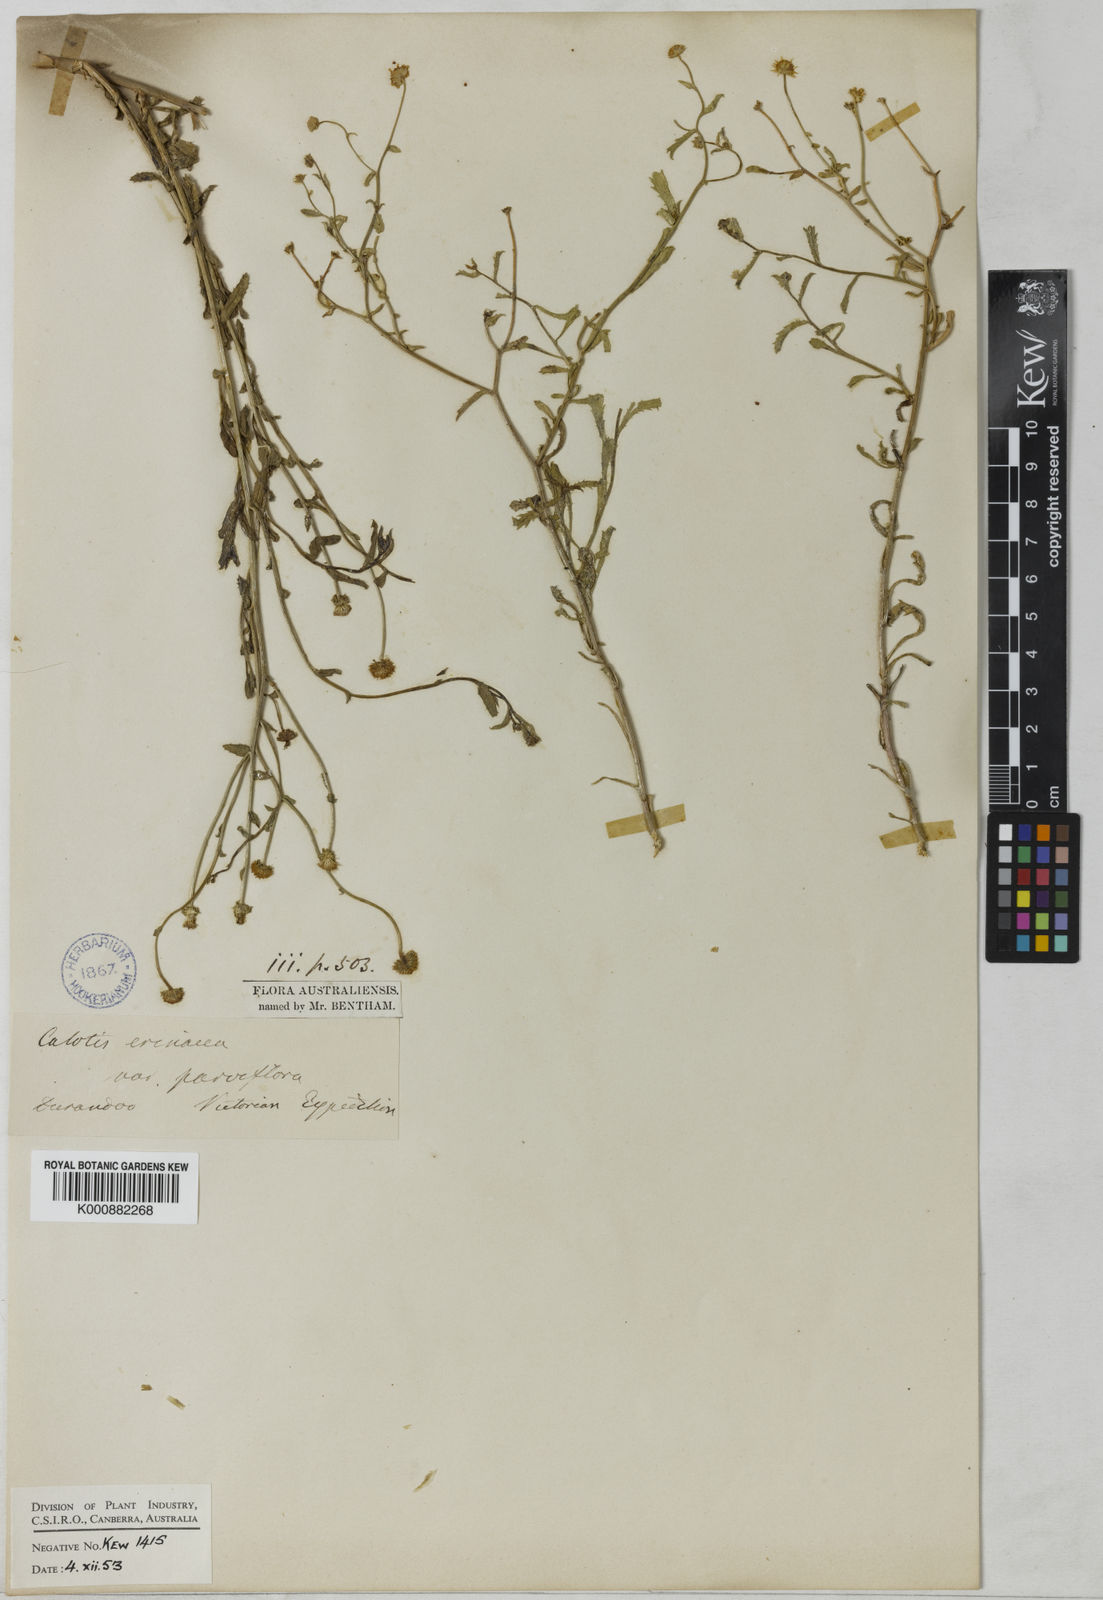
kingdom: Plantae
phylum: Tracheophyta
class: Magnoliopsida
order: Asterales
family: Asteraceae
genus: Calotis
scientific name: Calotis erinacea
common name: Tangled bur daisy
